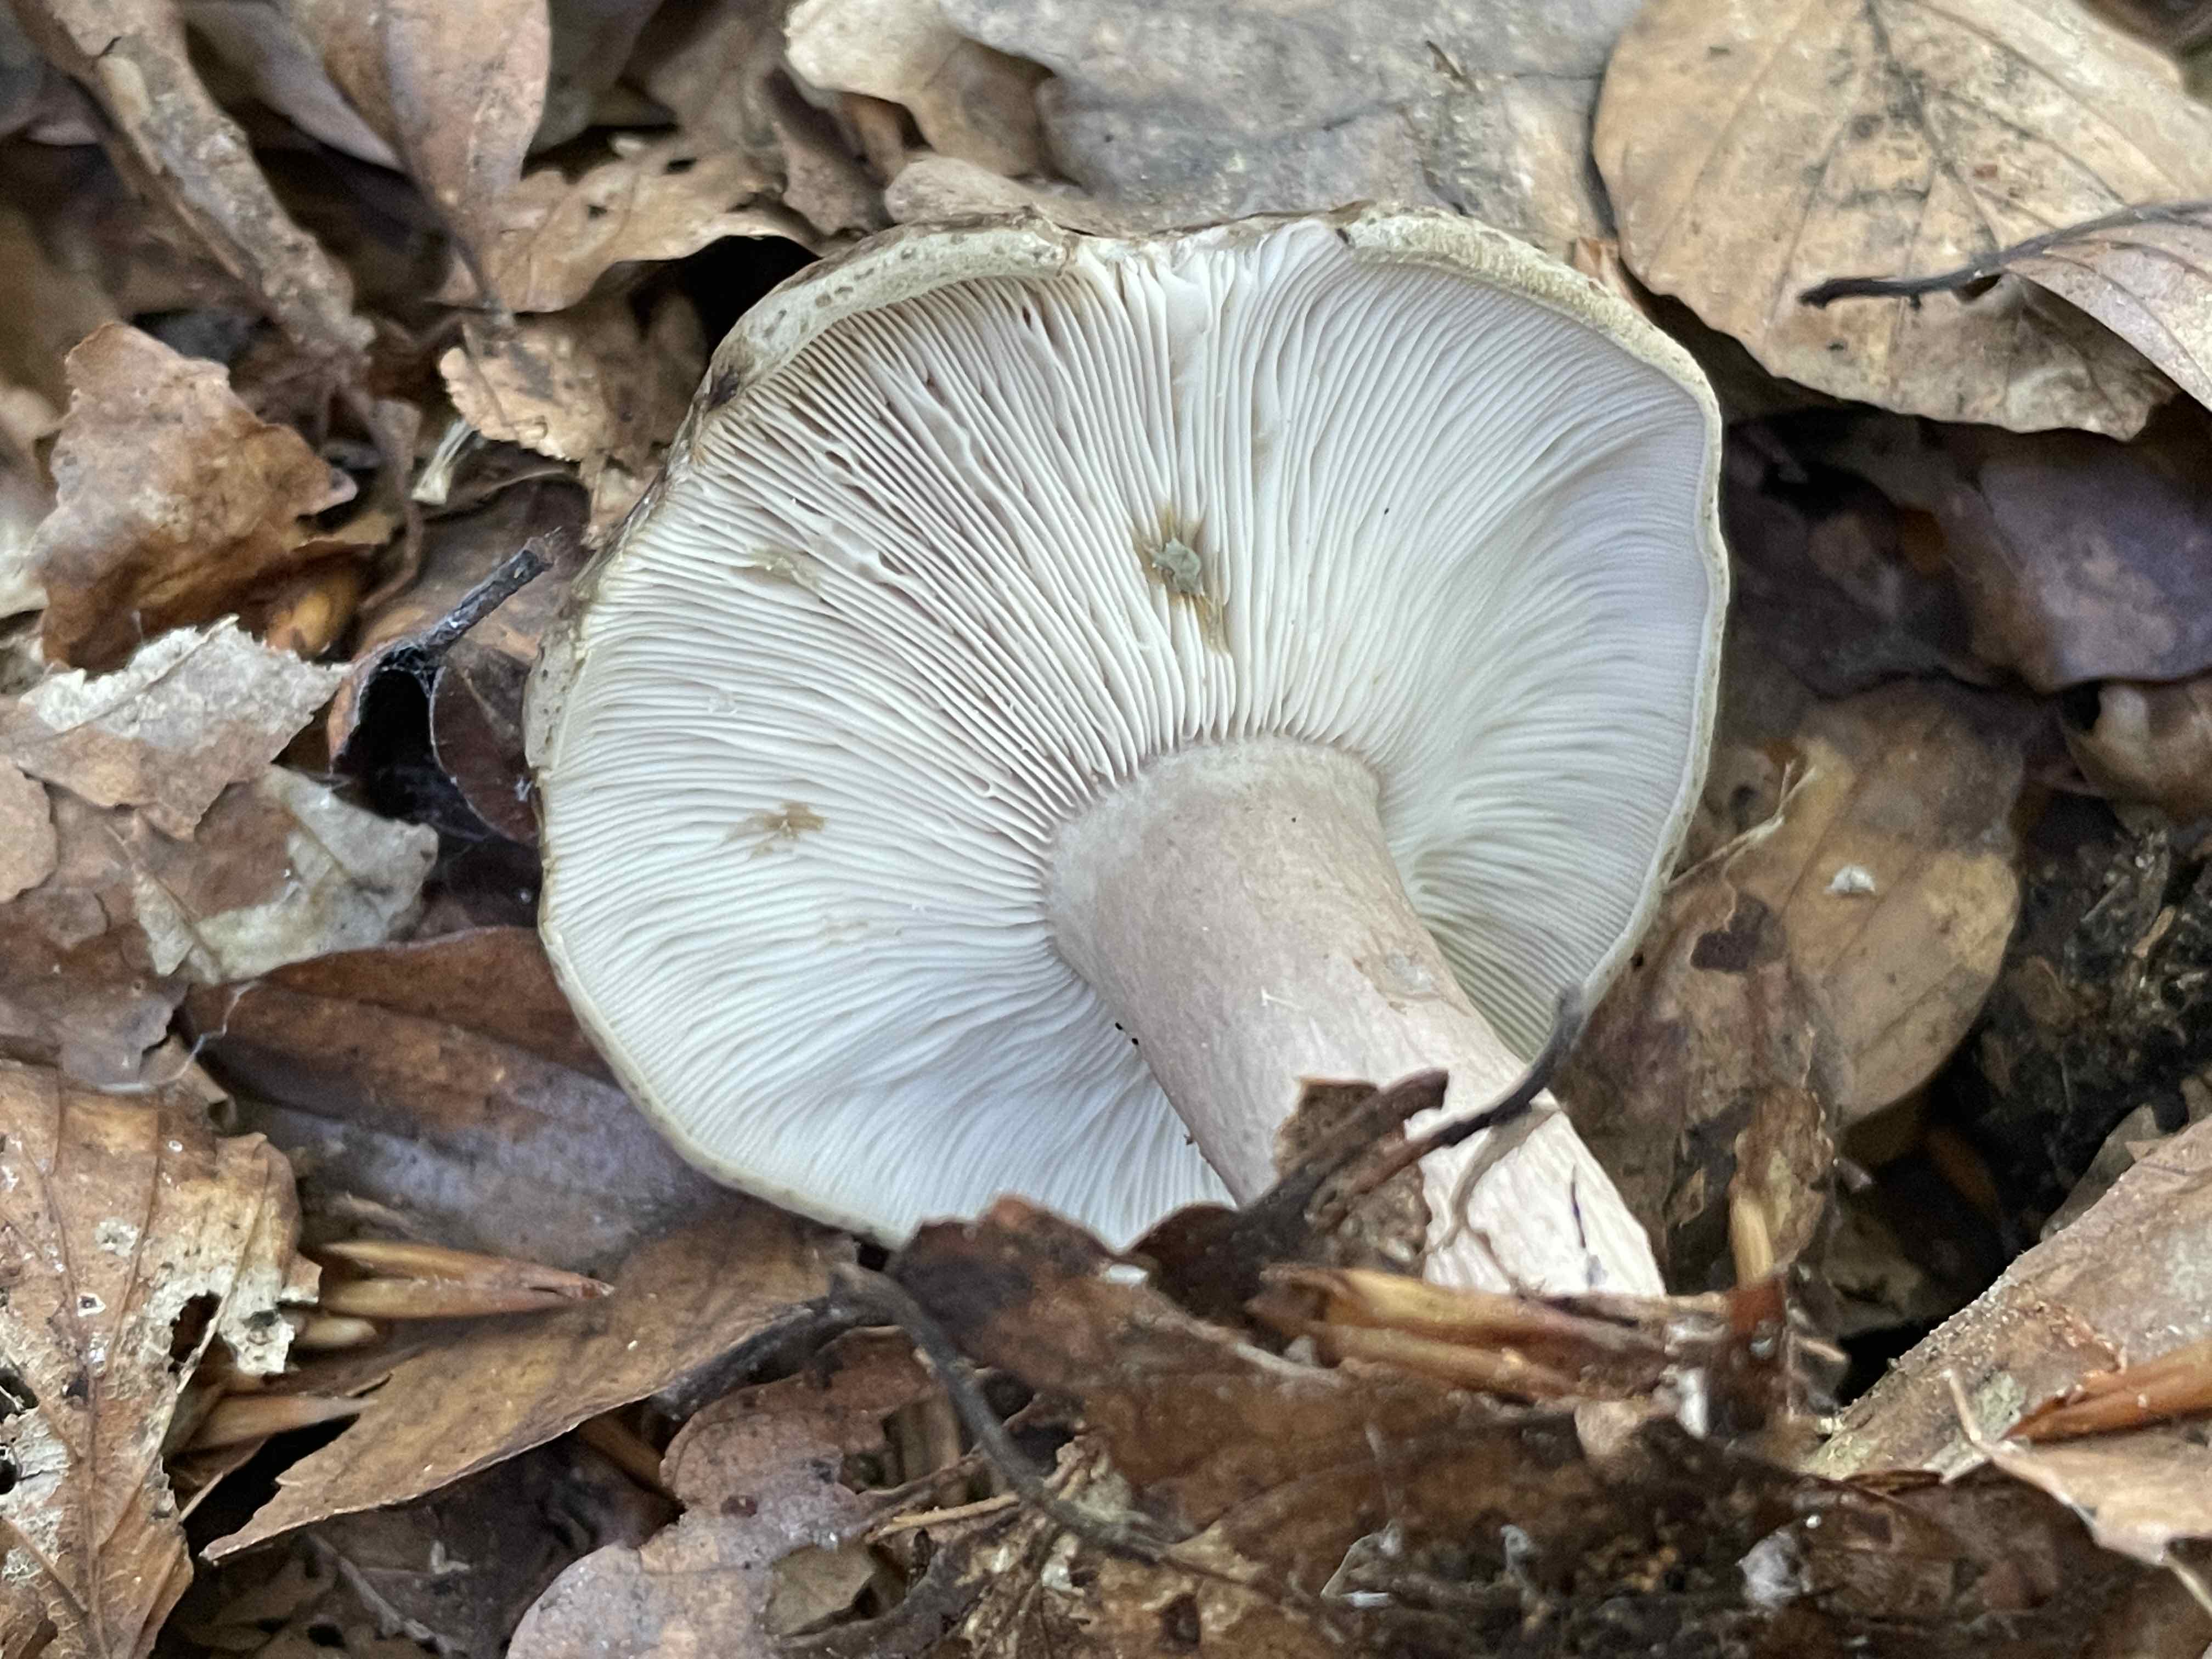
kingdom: Fungi
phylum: Basidiomycota
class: Agaricomycetes
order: Russulales
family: Russulaceae
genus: Lactarius
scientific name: Lactarius blennius
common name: dråbeplettet mælkehat
